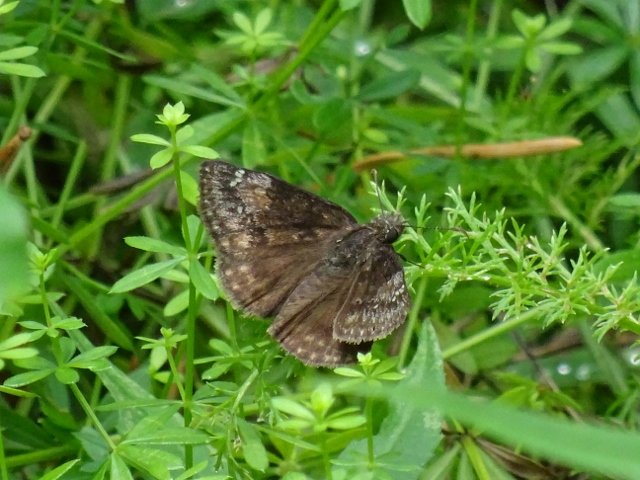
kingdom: Animalia
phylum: Arthropoda
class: Insecta
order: Lepidoptera
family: Hesperiidae
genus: Gesta
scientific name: Gesta
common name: Wild Indigo Duskywing
